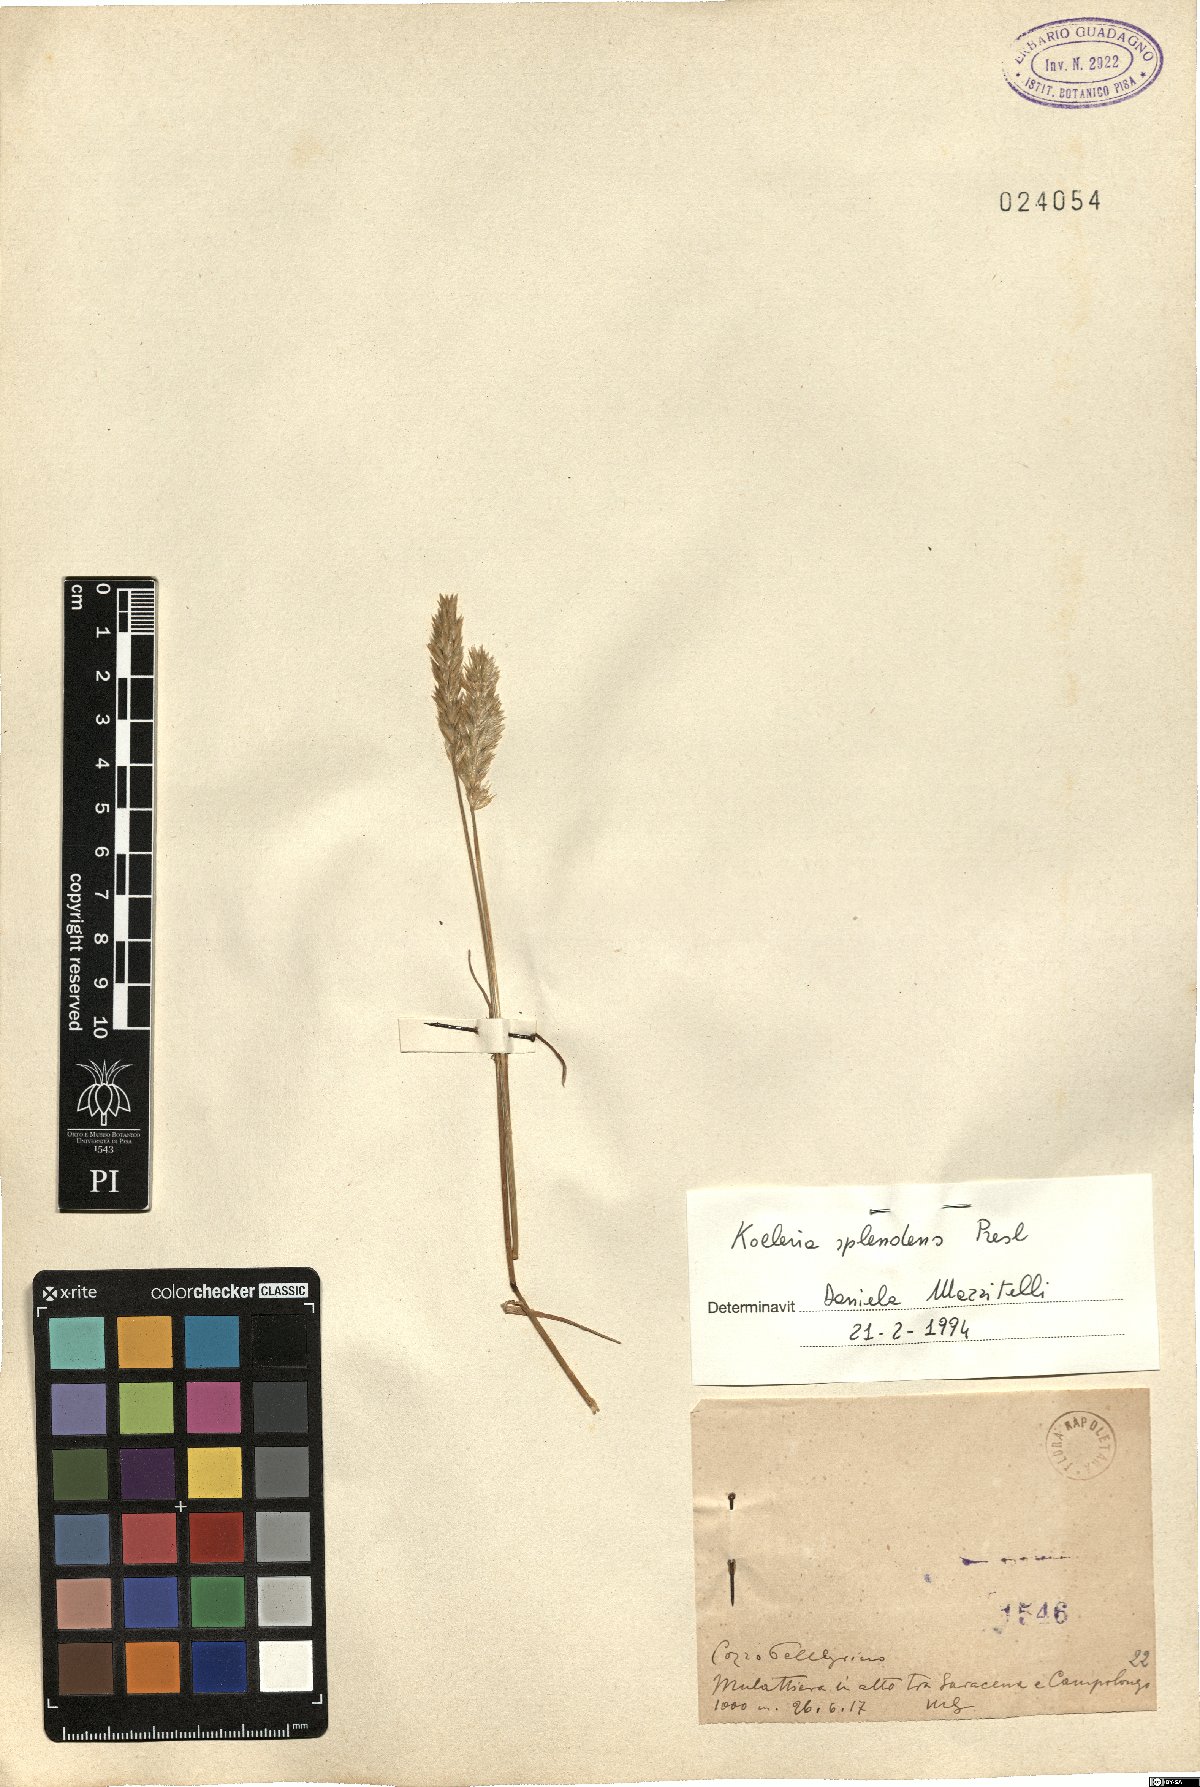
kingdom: Plantae
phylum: Tracheophyta
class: Liliopsida
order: Poales
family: Poaceae
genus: Koeleria
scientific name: Koeleria splendens
